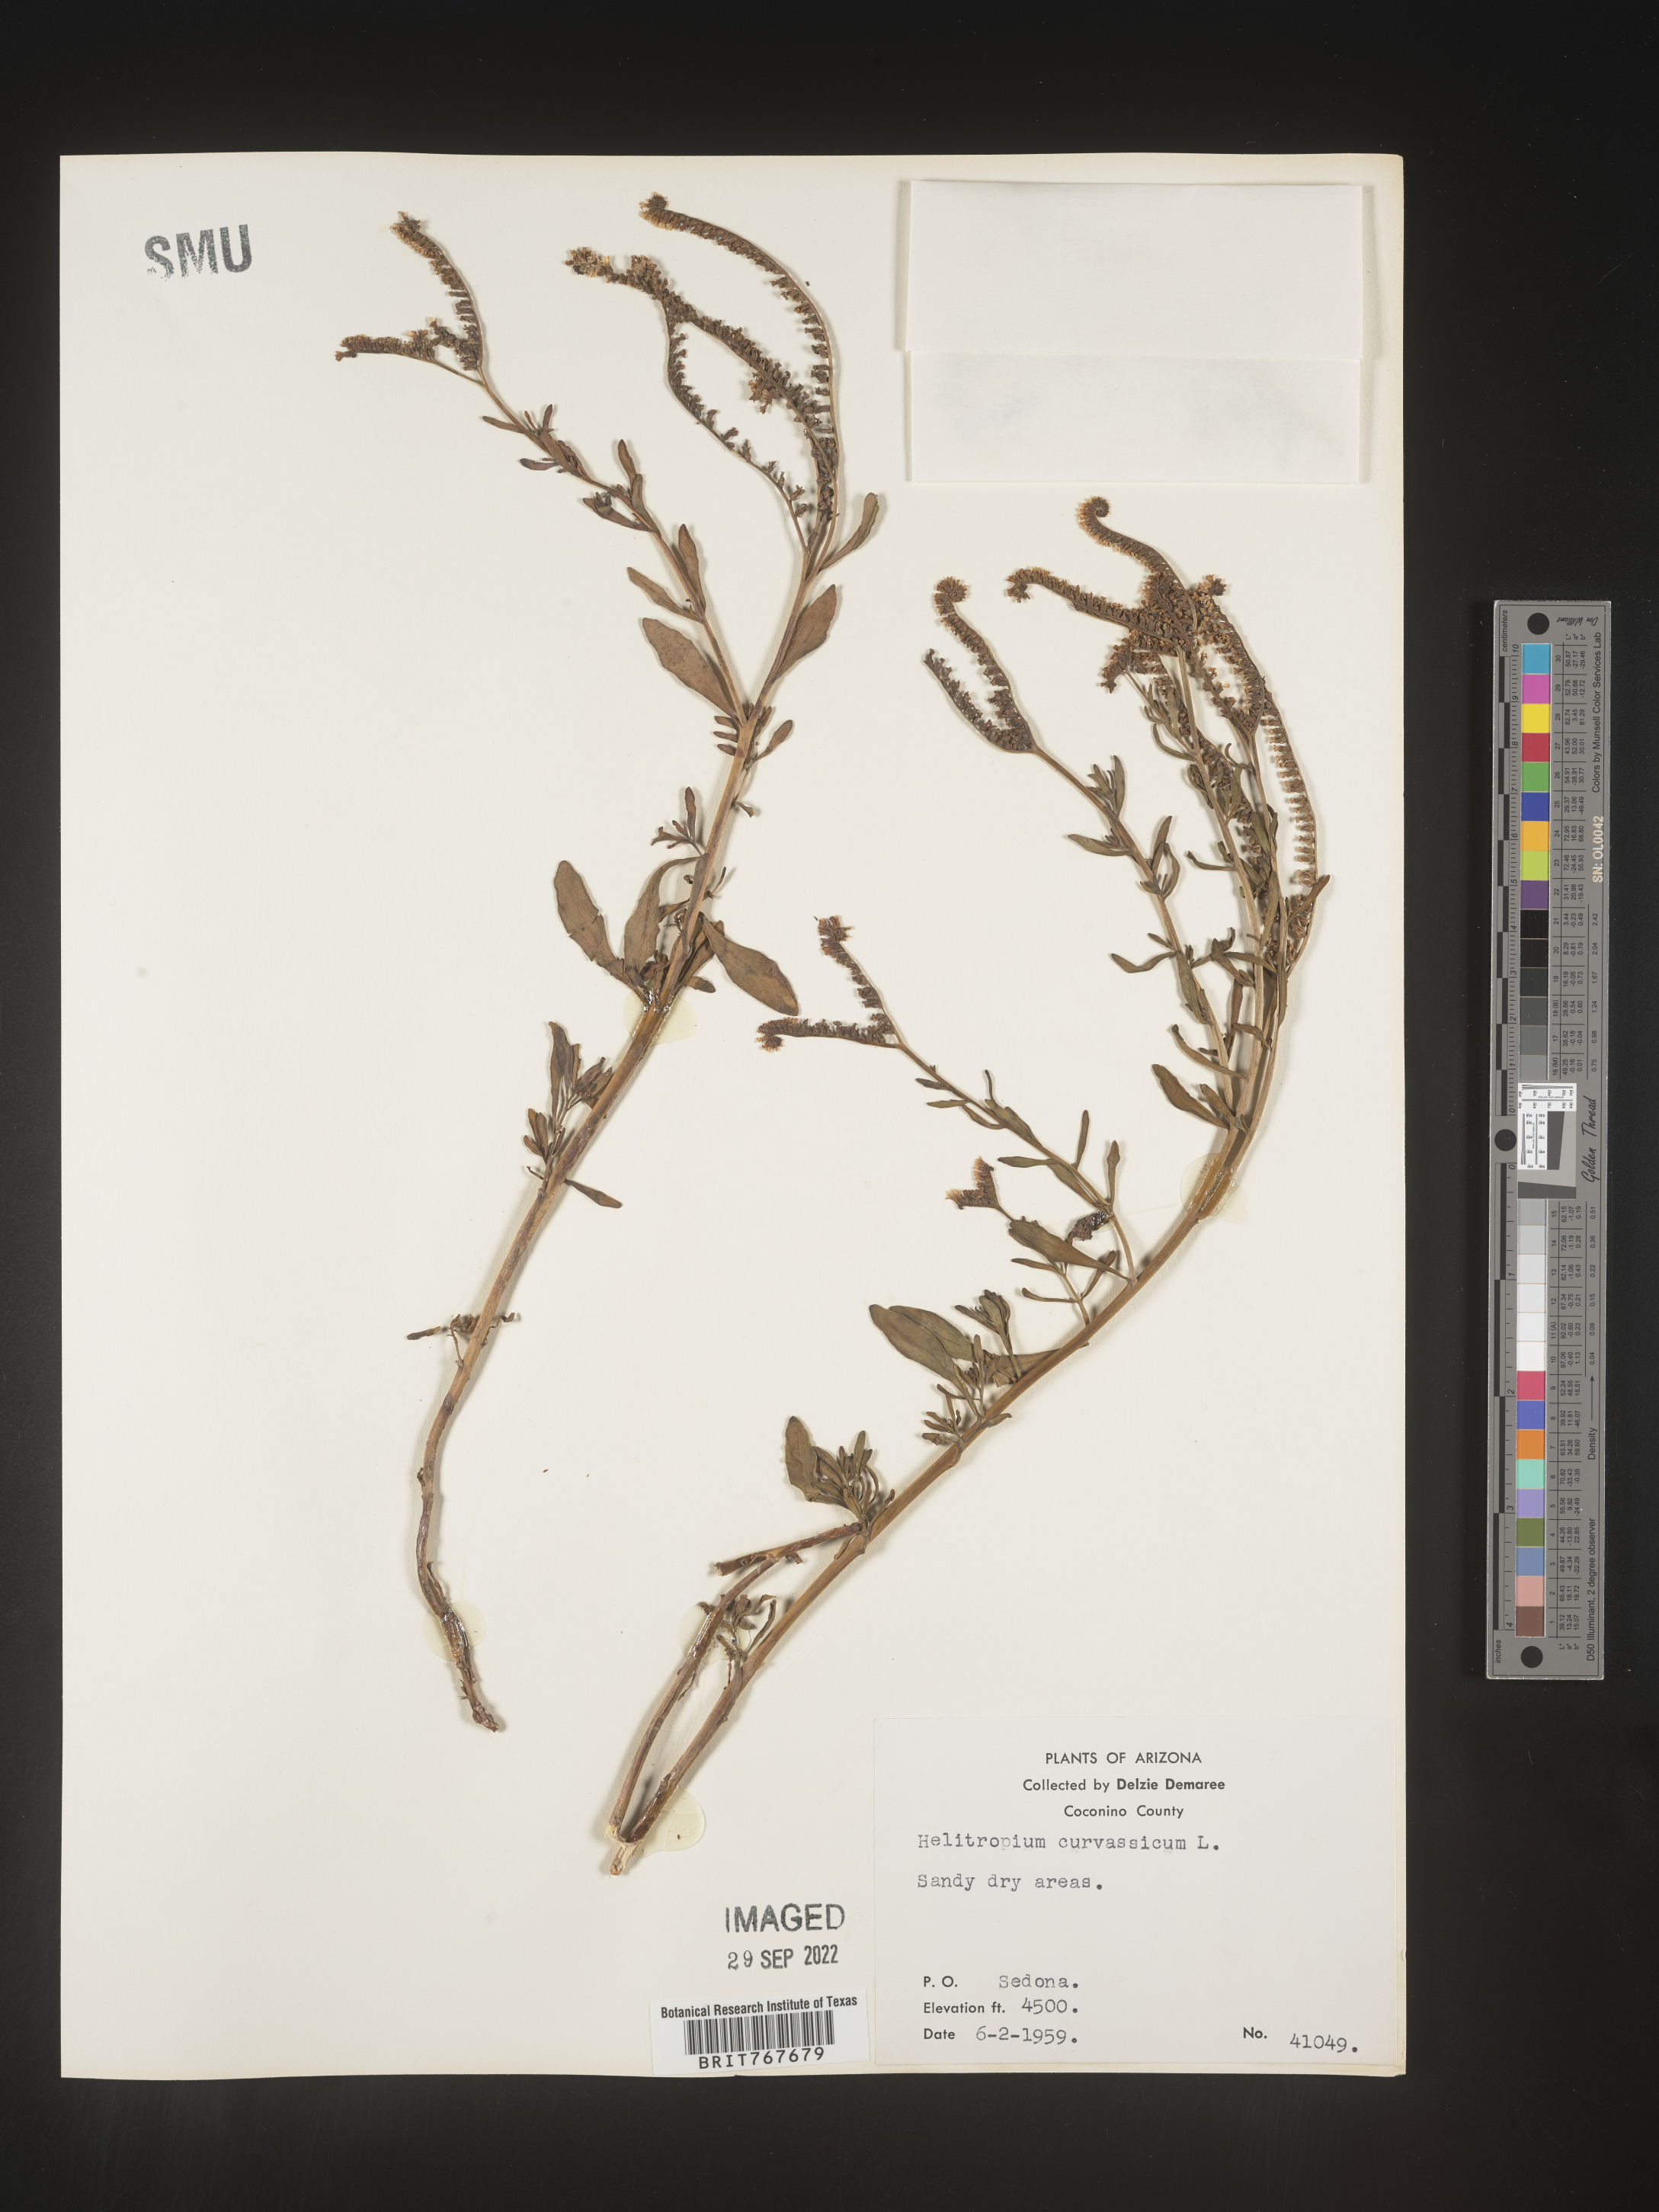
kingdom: Plantae
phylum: Tracheophyta
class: Magnoliopsida
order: Boraginales
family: Heliotropiaceae
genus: Heliotropium
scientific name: Heliotropium curassavicum
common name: Seaside heliotrope
